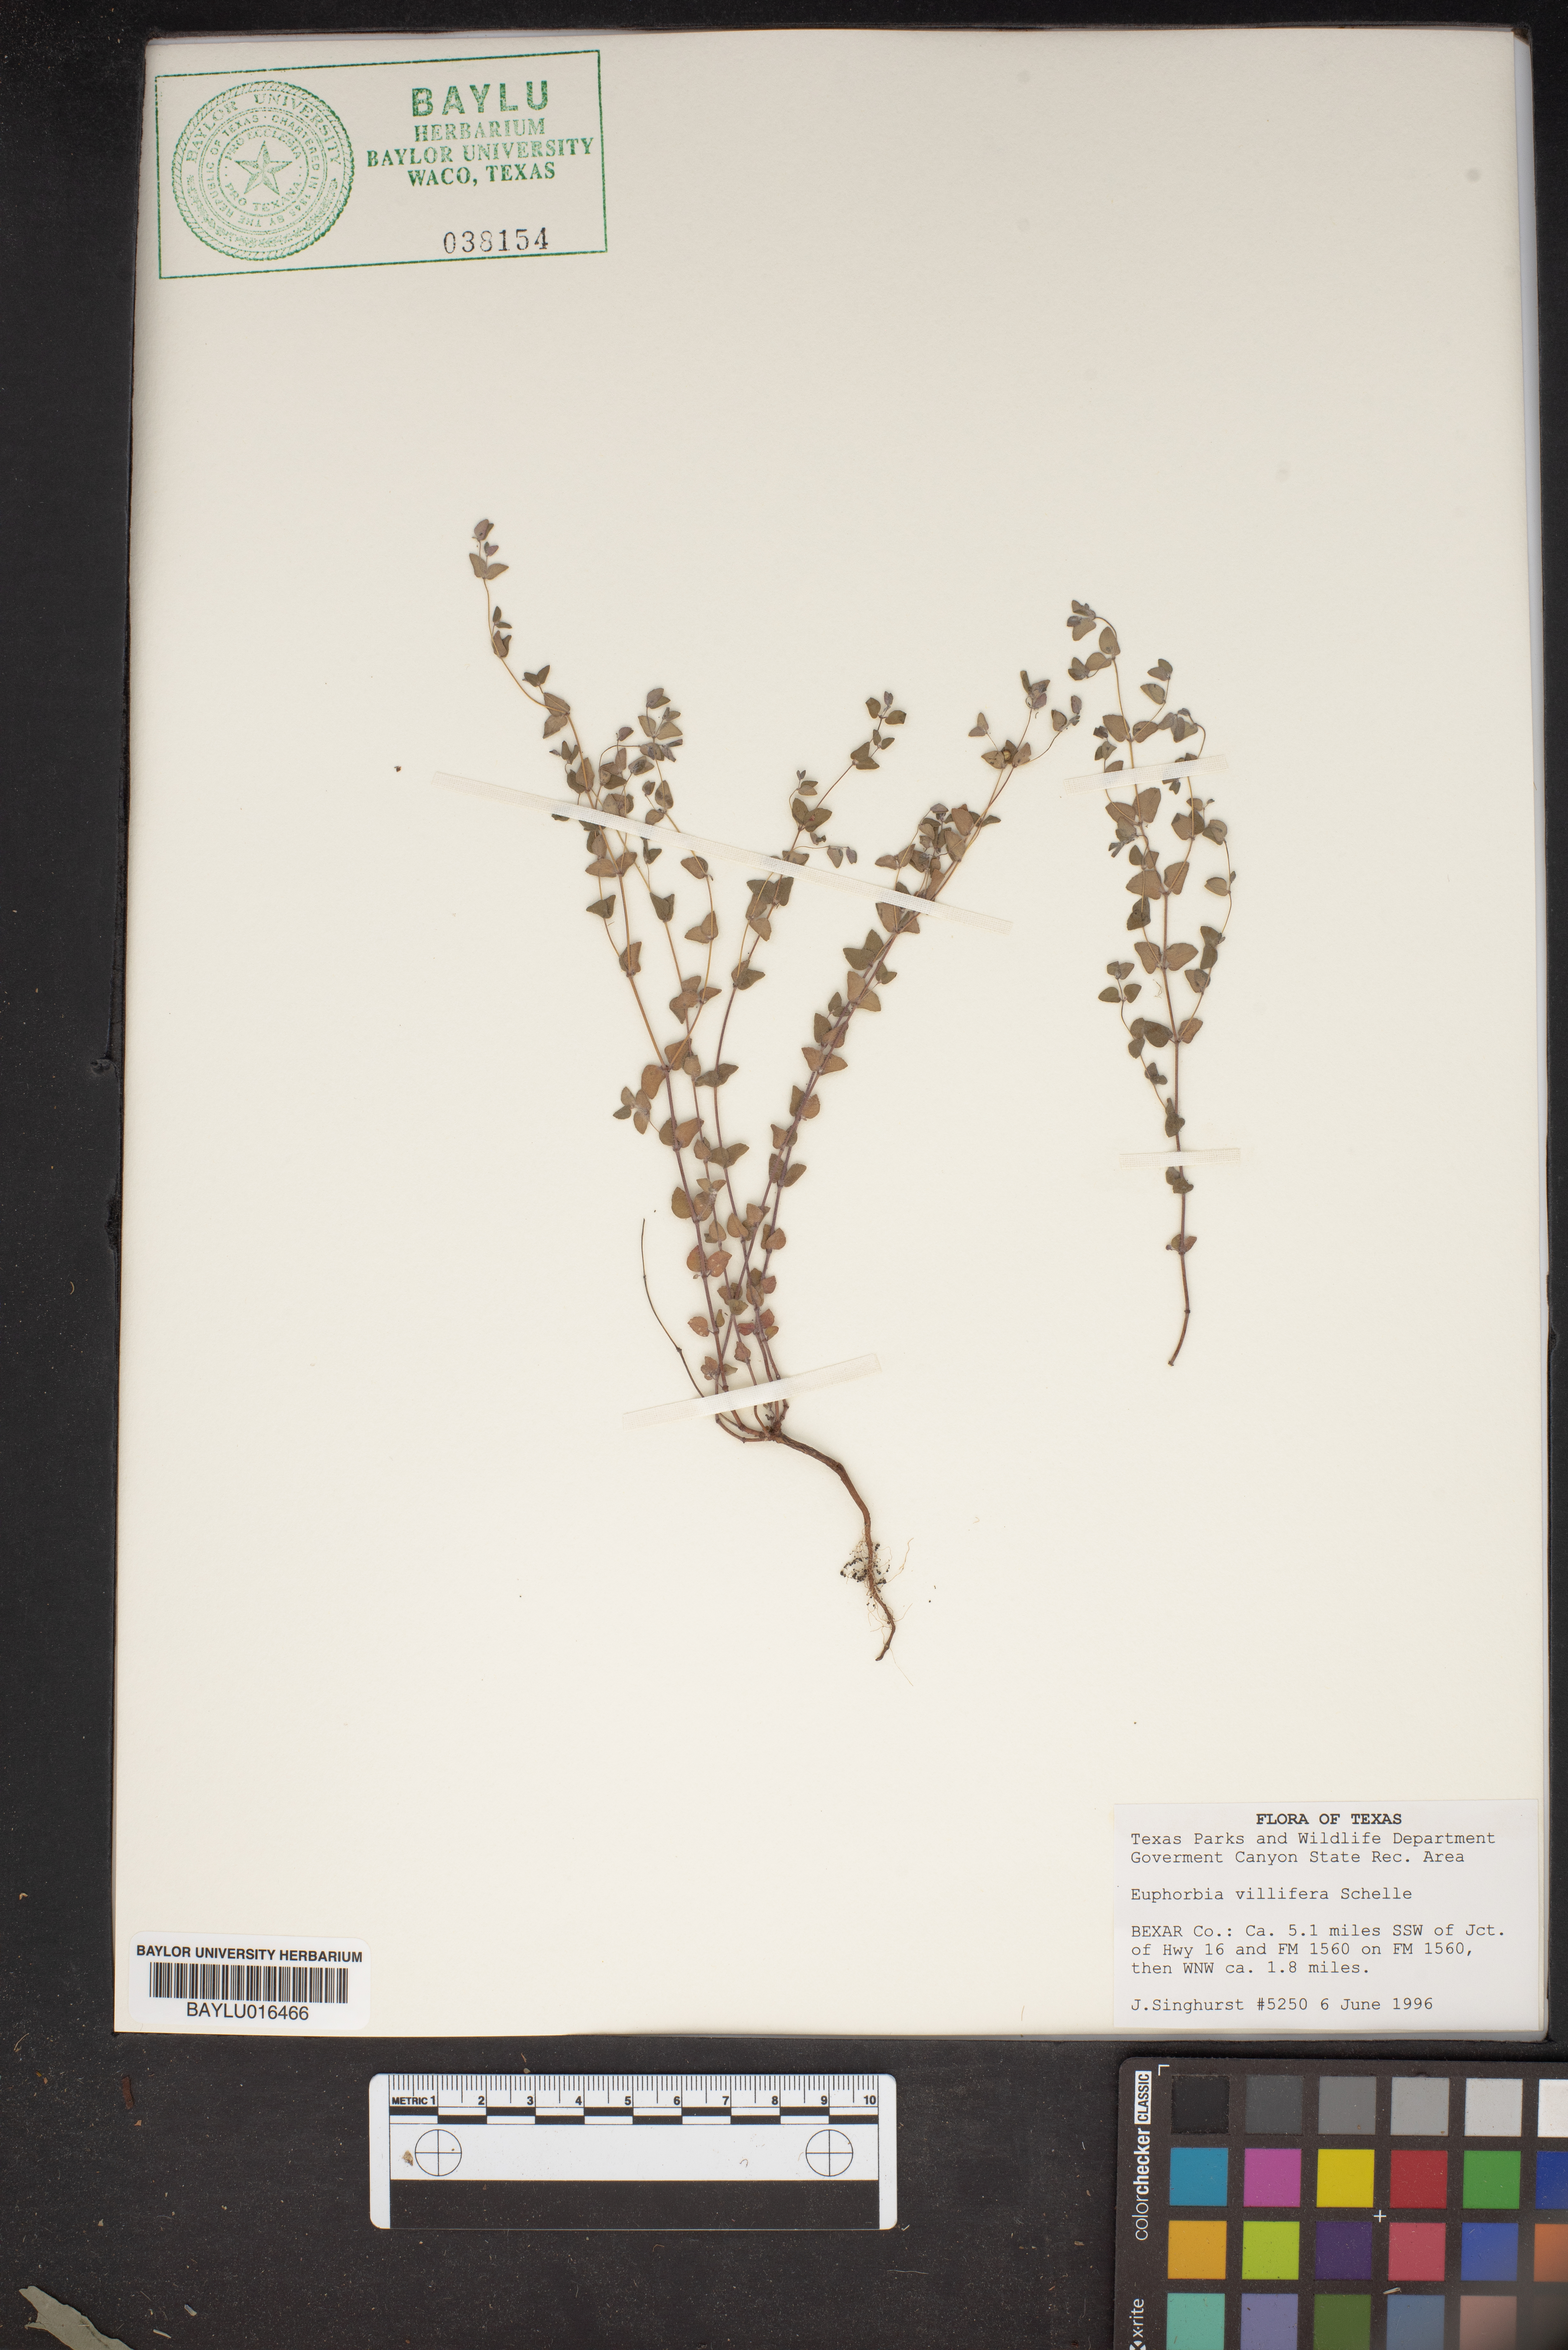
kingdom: Plantae
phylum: Tracheophyta
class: Magnoliopsida
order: Malpighiales
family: Euphorbiaceae
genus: Euphorbia
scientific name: Euphorbia micractina
